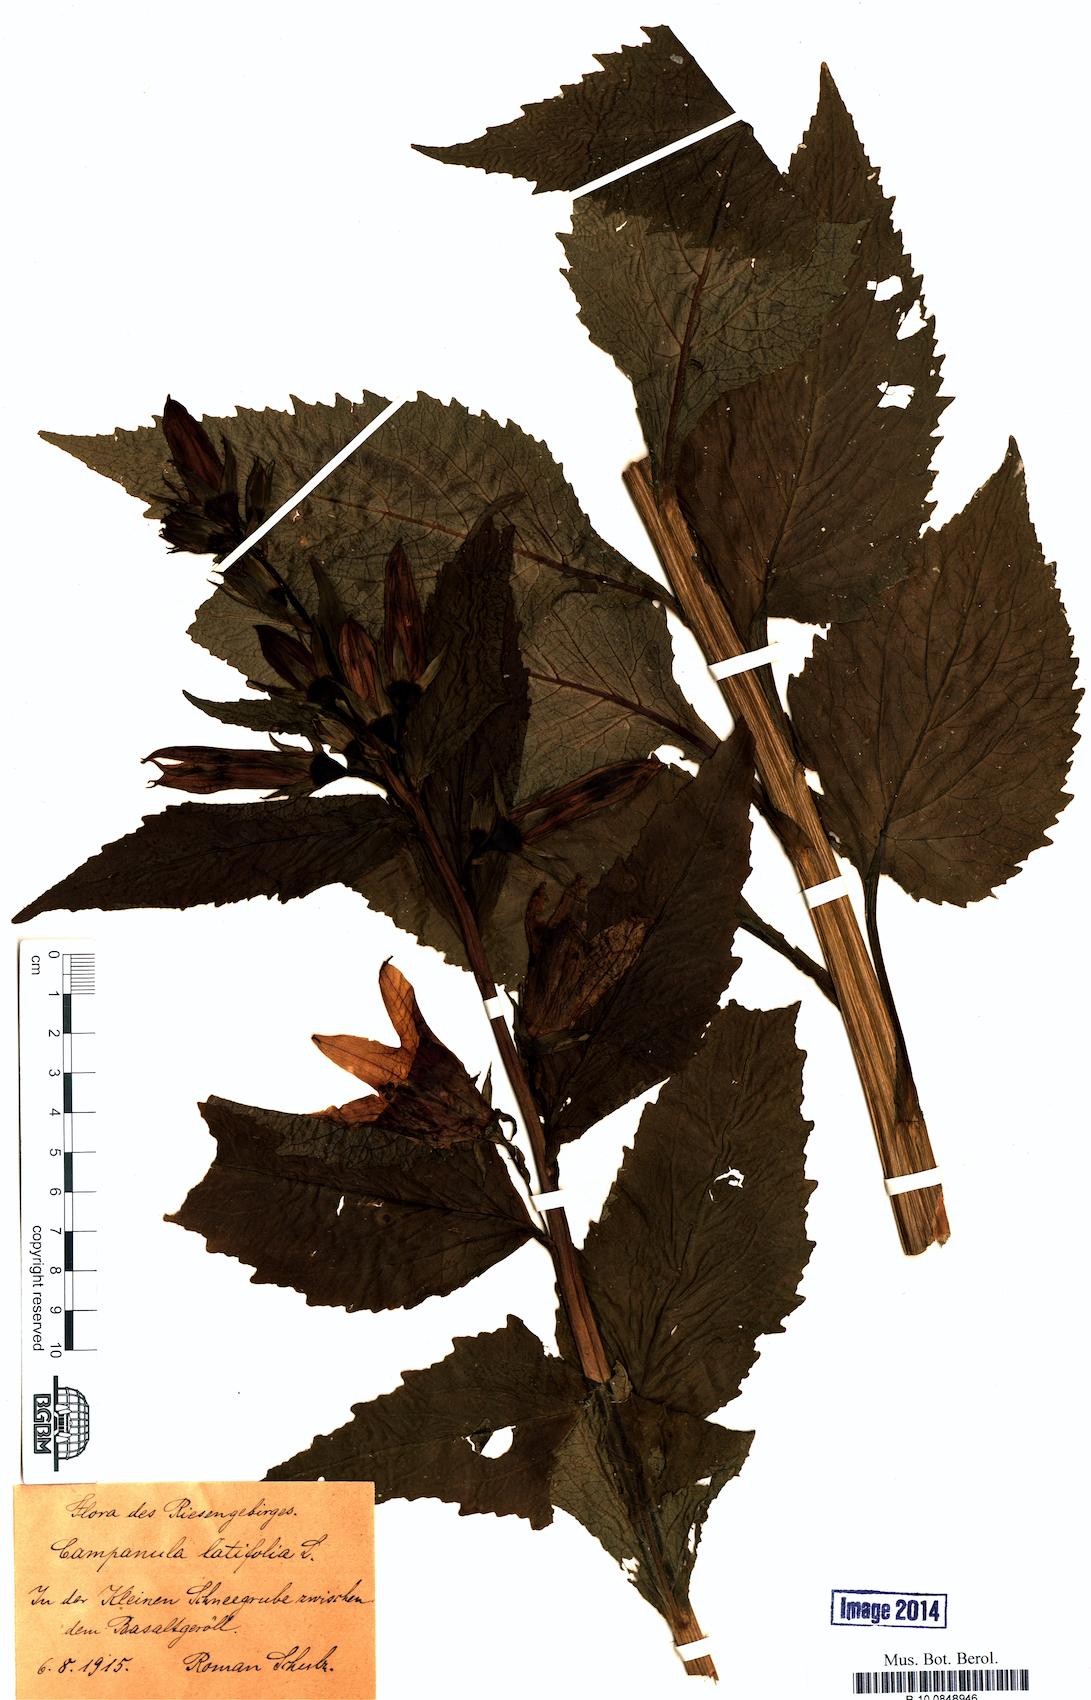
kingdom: Plantae
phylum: Tracheophyta
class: Magnoliopsida
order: Asterales
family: Campanulaceae
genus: Campanula
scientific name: Campanula latifolia
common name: Giant bellflower
